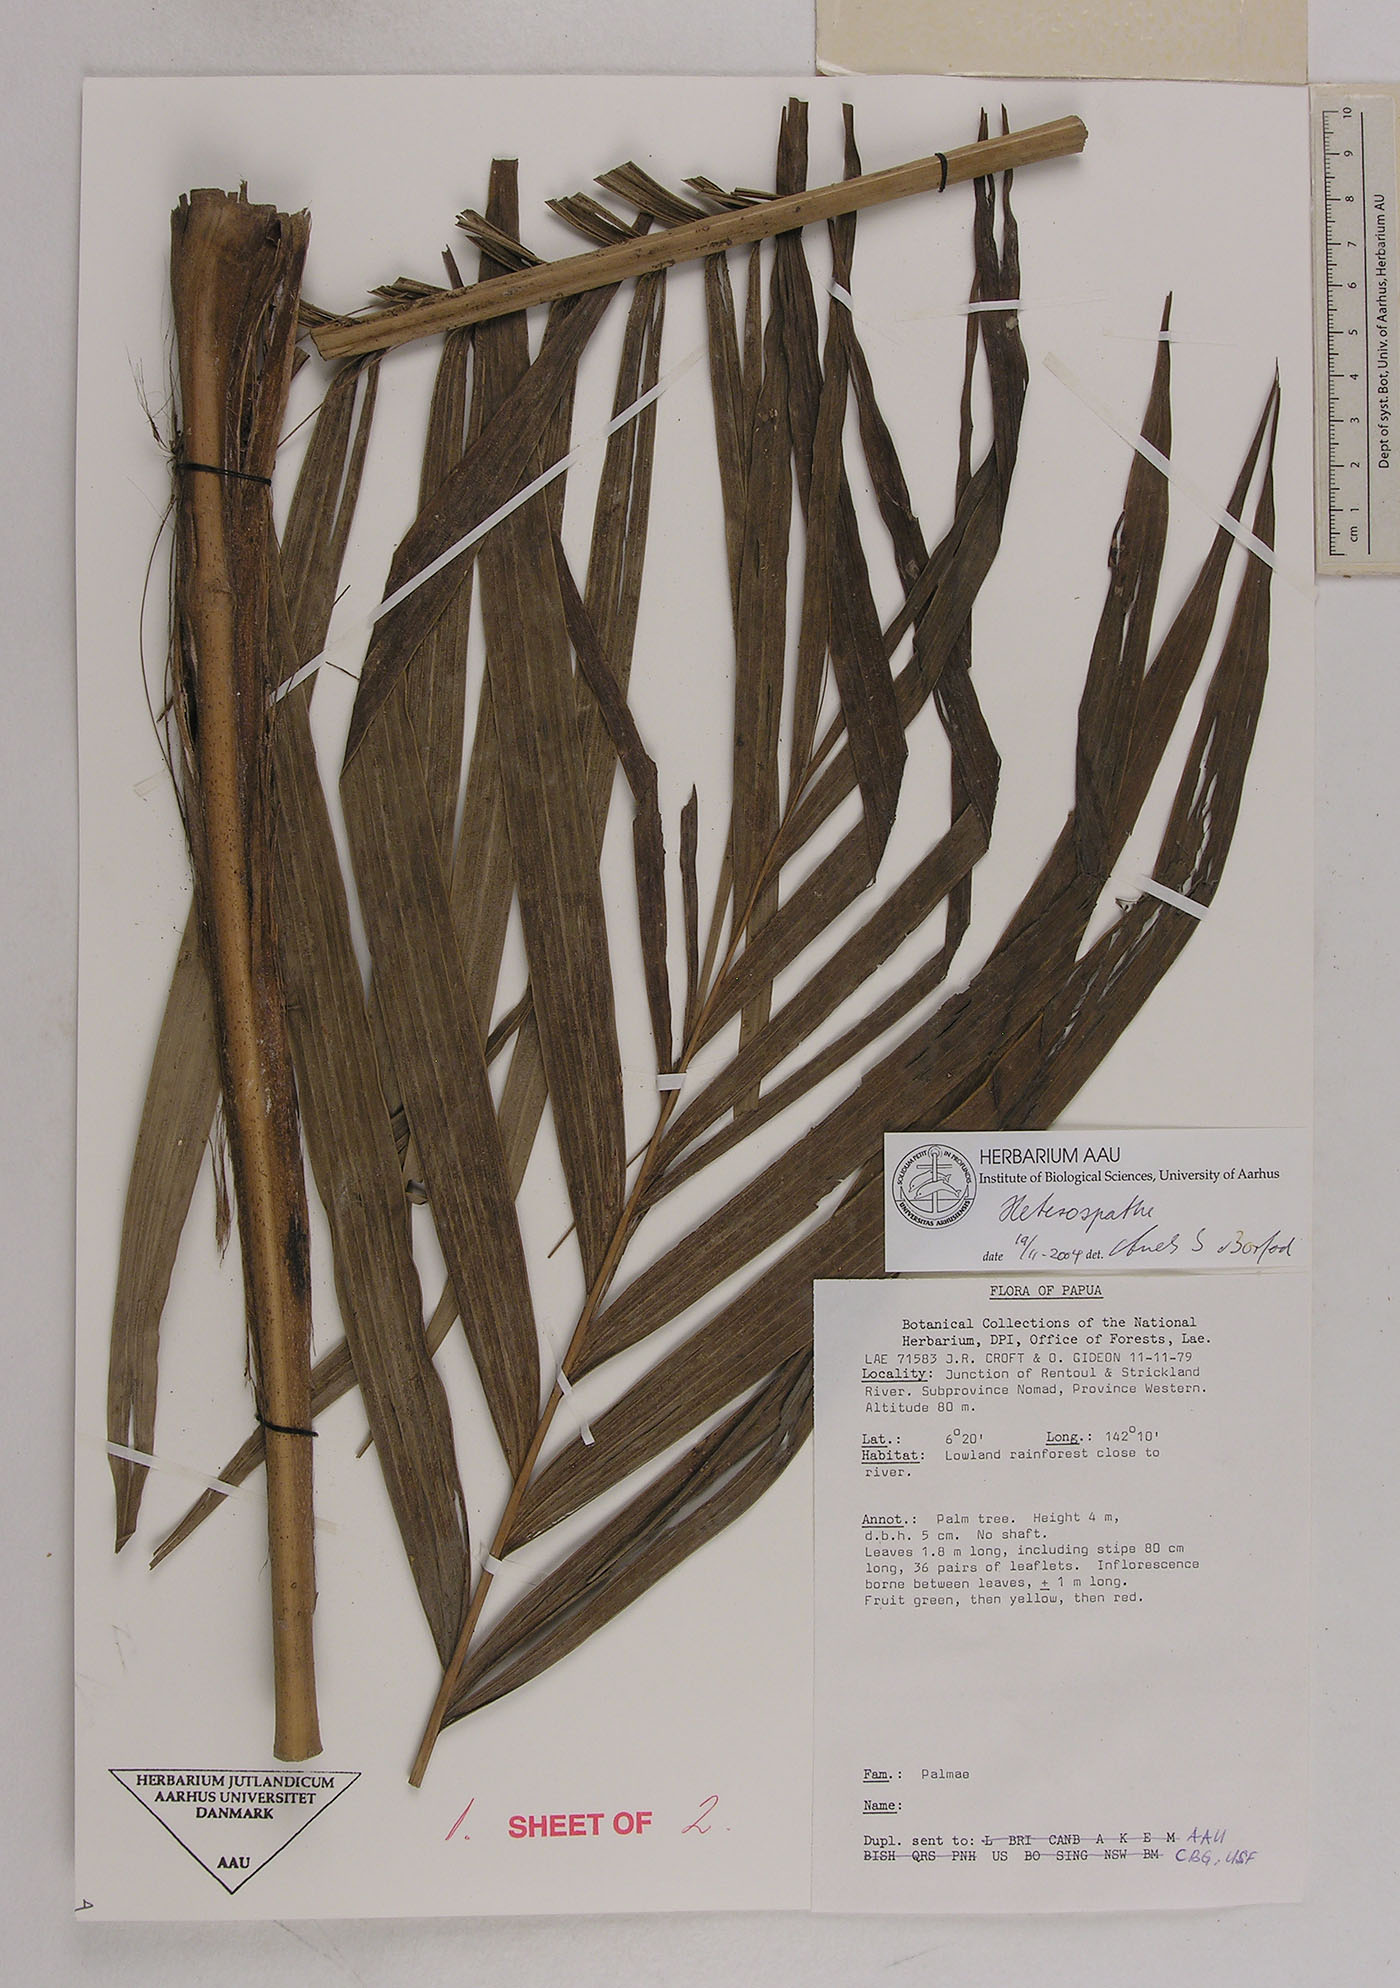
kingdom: Plantae
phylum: Tracheophyta
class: Liliopsida
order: Arecales
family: Arecaceae
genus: Heterospathe
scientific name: Heterospathe
